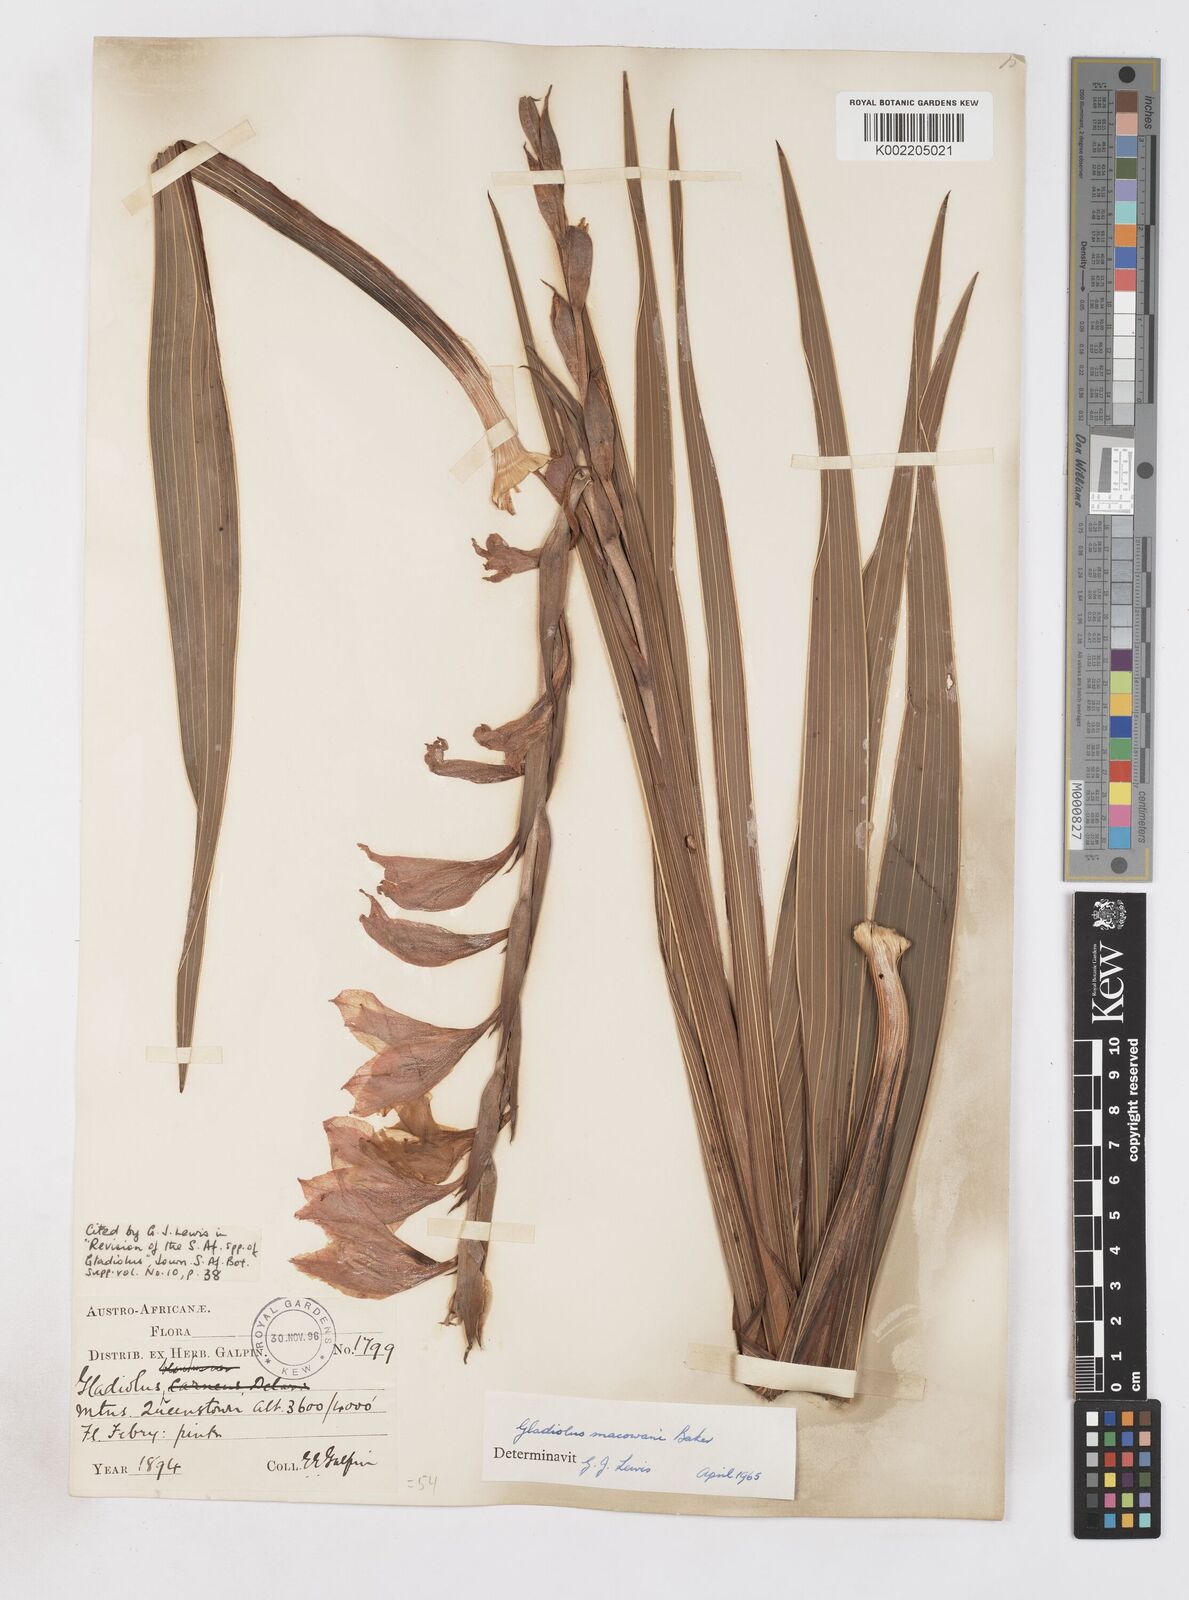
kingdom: Plantae
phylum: Tracheophyta
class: Liliopsida
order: Asparagales
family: Iridaceae
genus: Gladiolus
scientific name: Gladiolus mortonius
